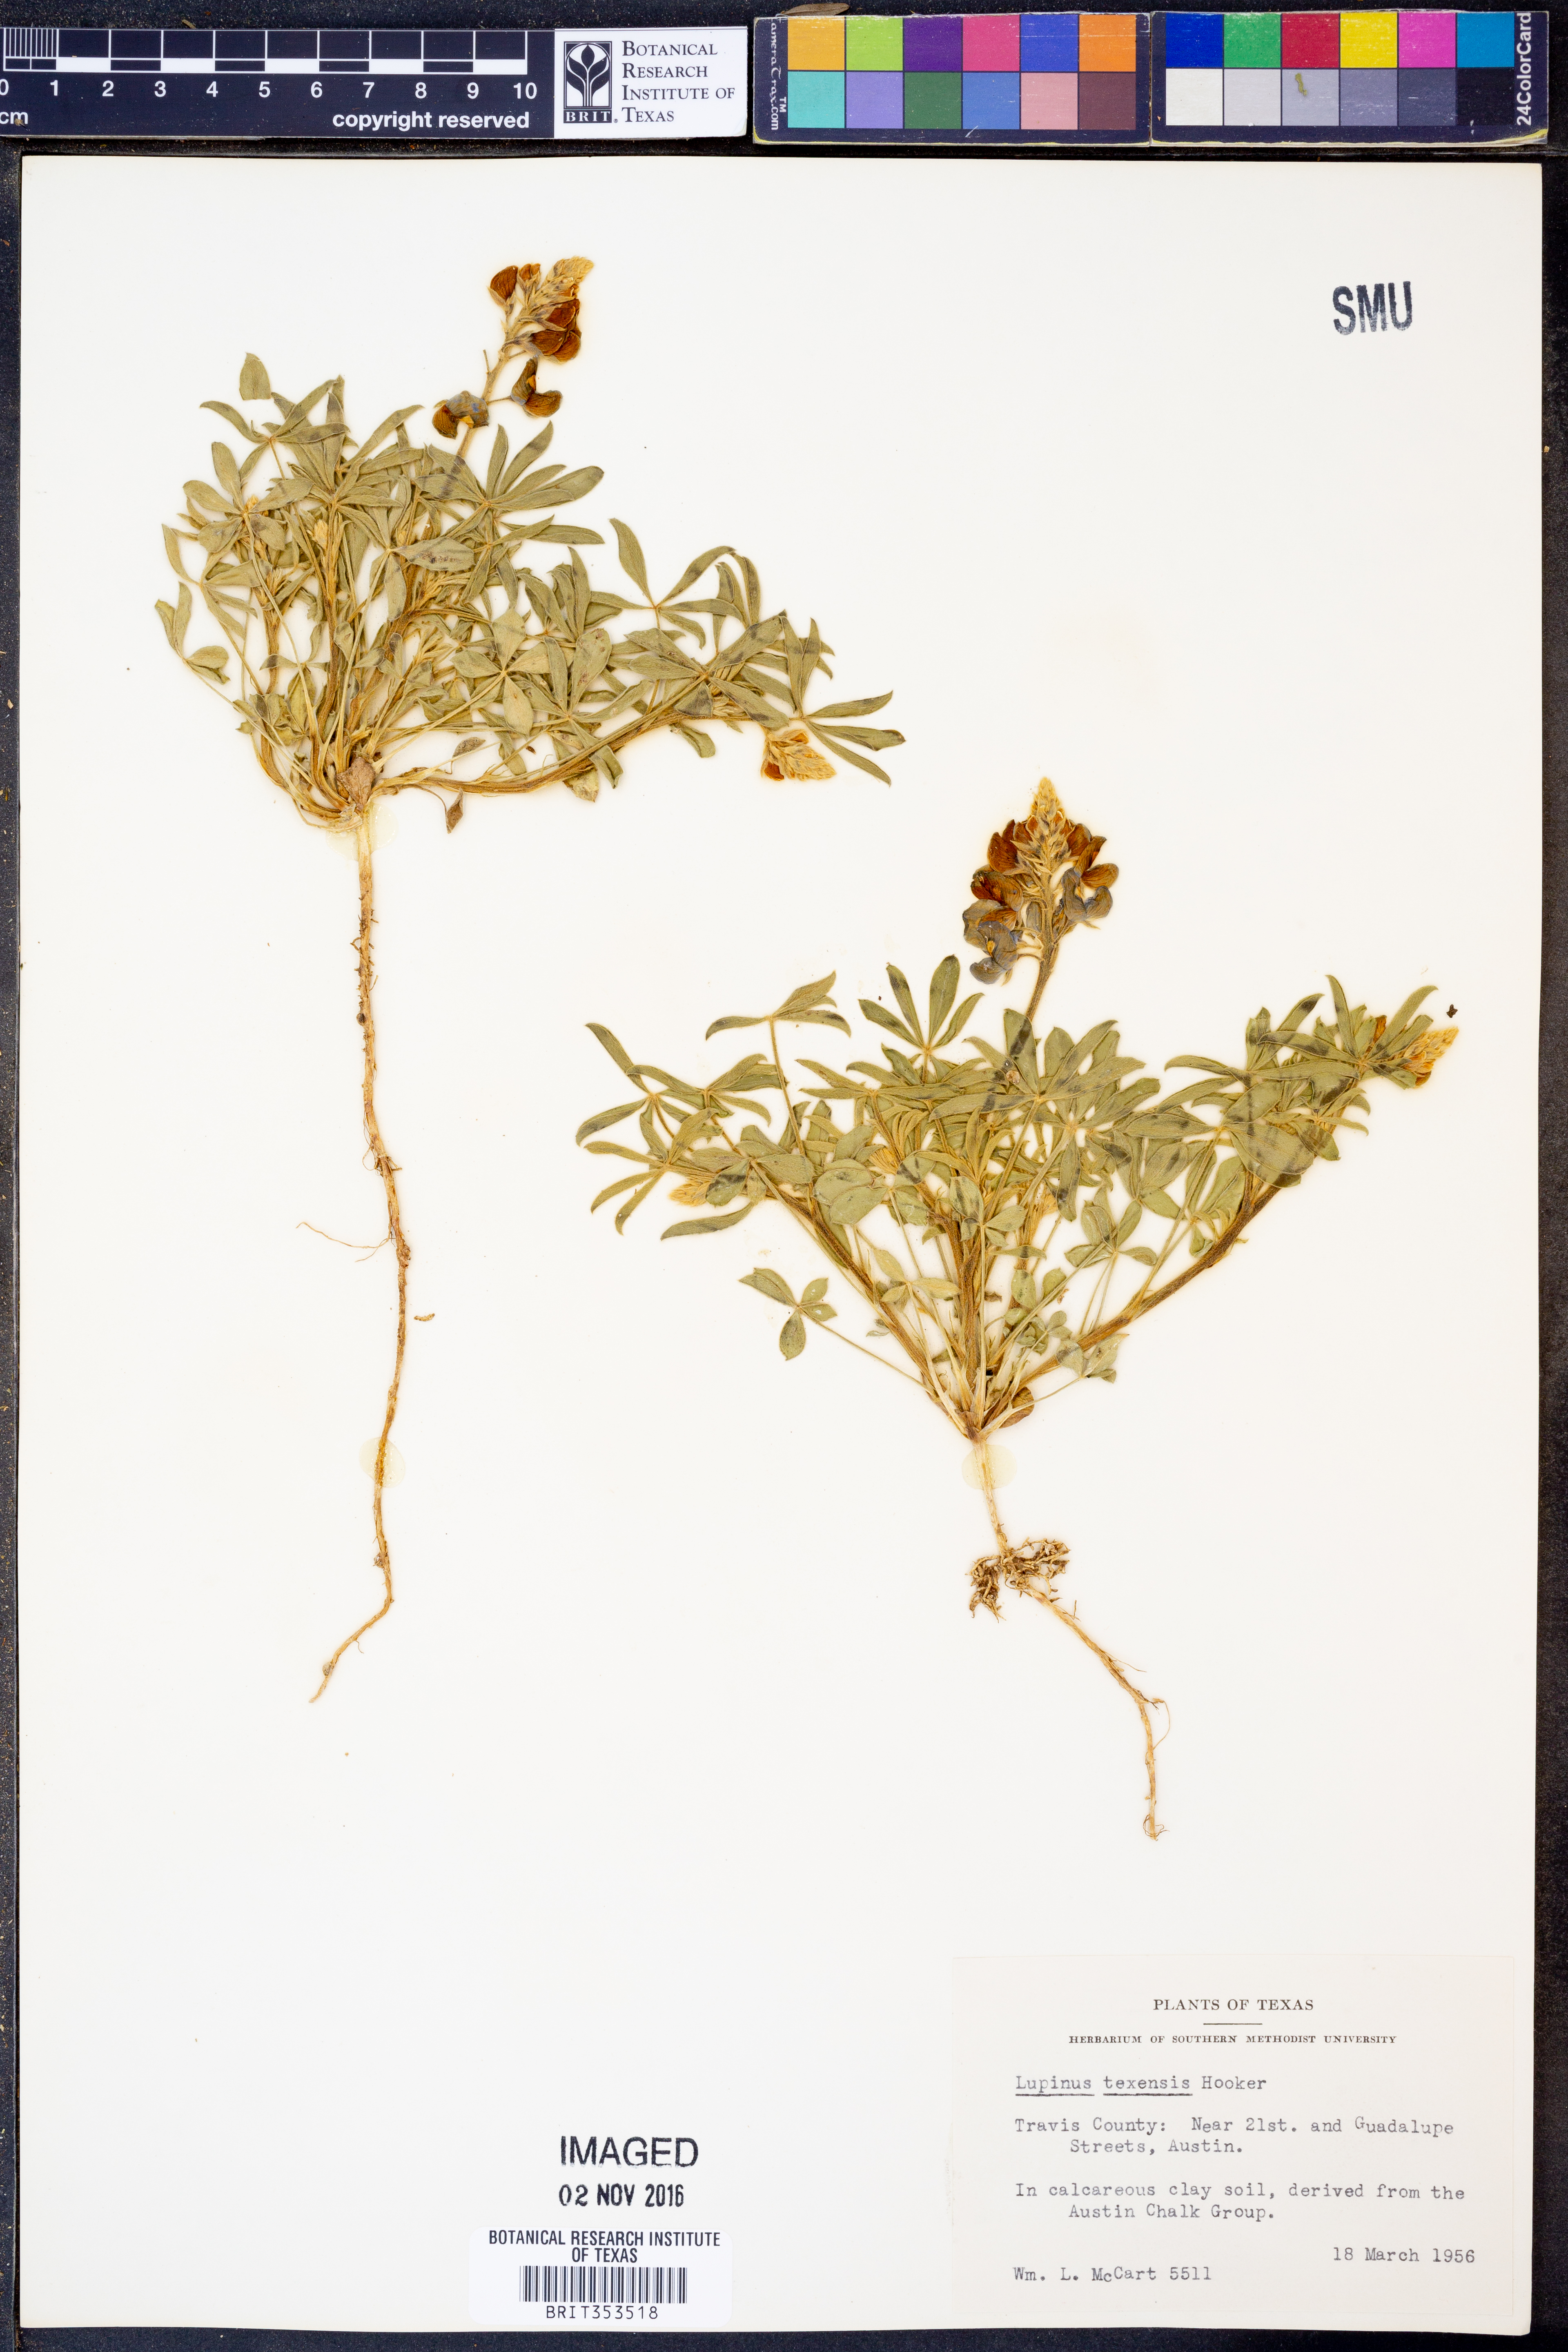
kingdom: Plantae
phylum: Tracheophyta
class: Magnoliopsida
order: Fabales
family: Fabaceae
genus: Lupinus
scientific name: Lupinus texensis
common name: Texas bluebonnet
